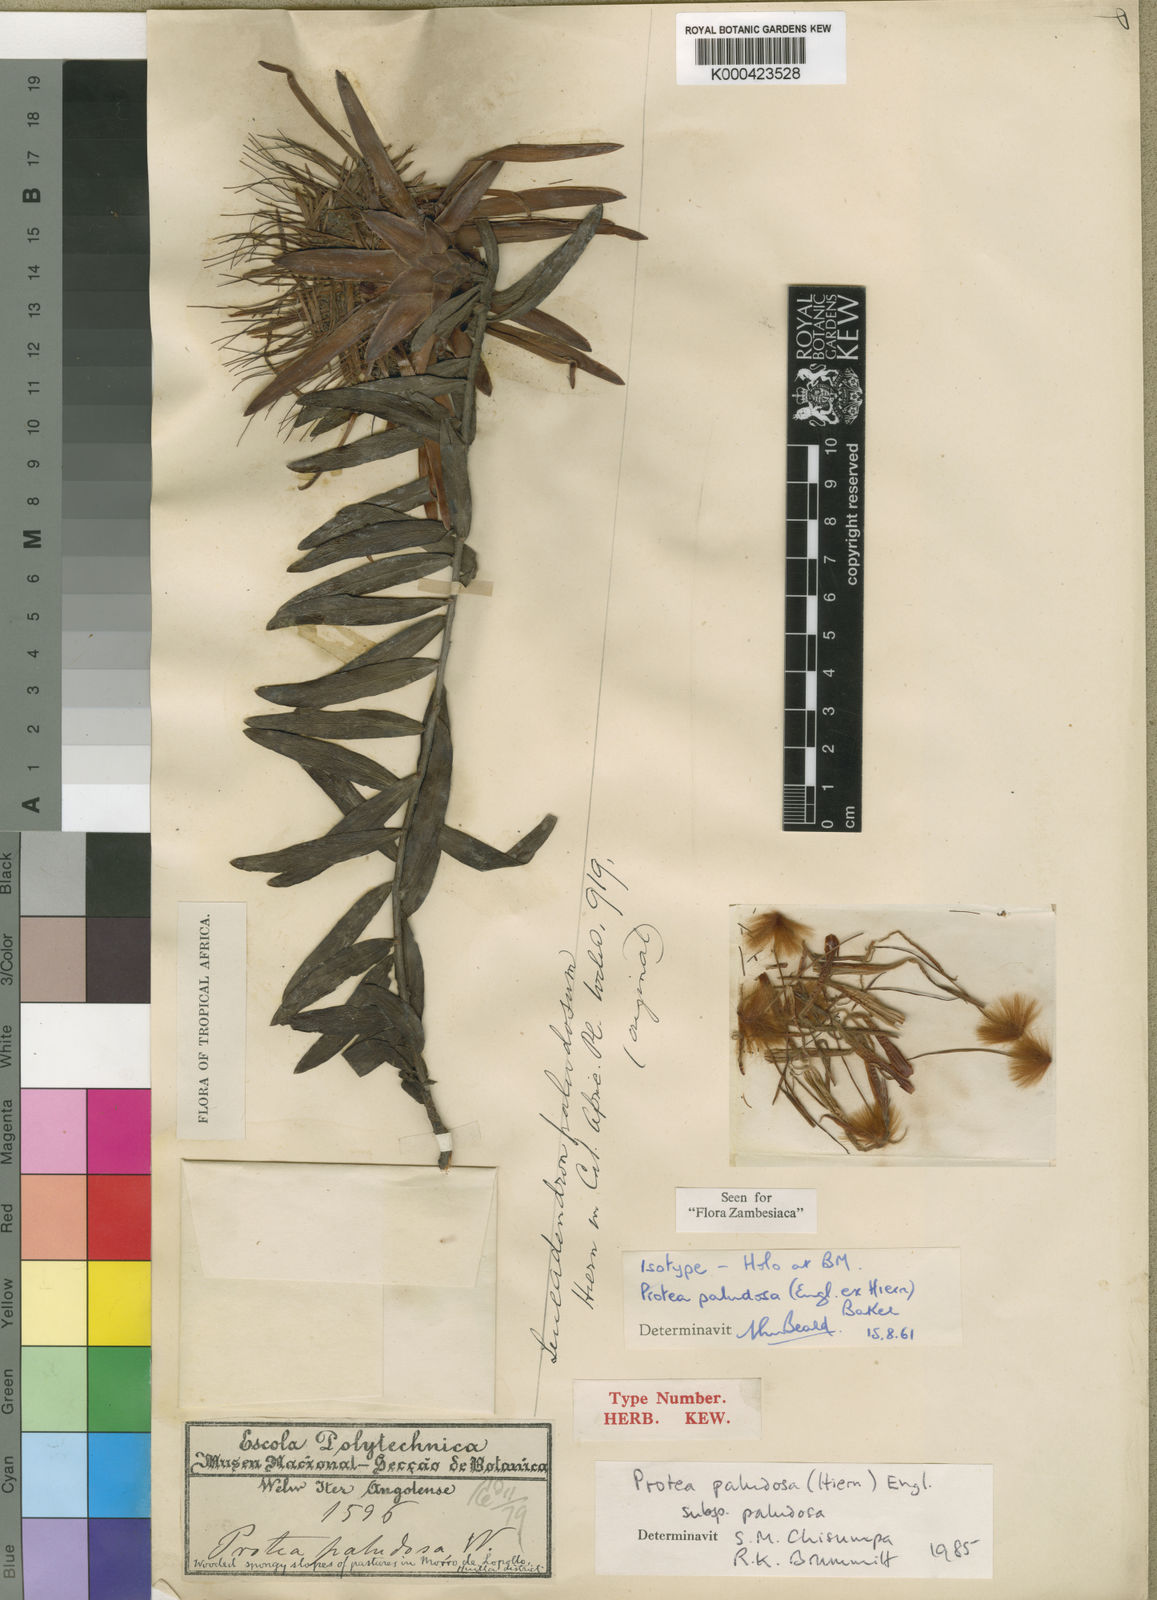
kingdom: Plantae
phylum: Tracheophyta
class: Magnoliopsida
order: Proteales
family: Proteaceae
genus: Protea
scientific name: Protea paludosa
